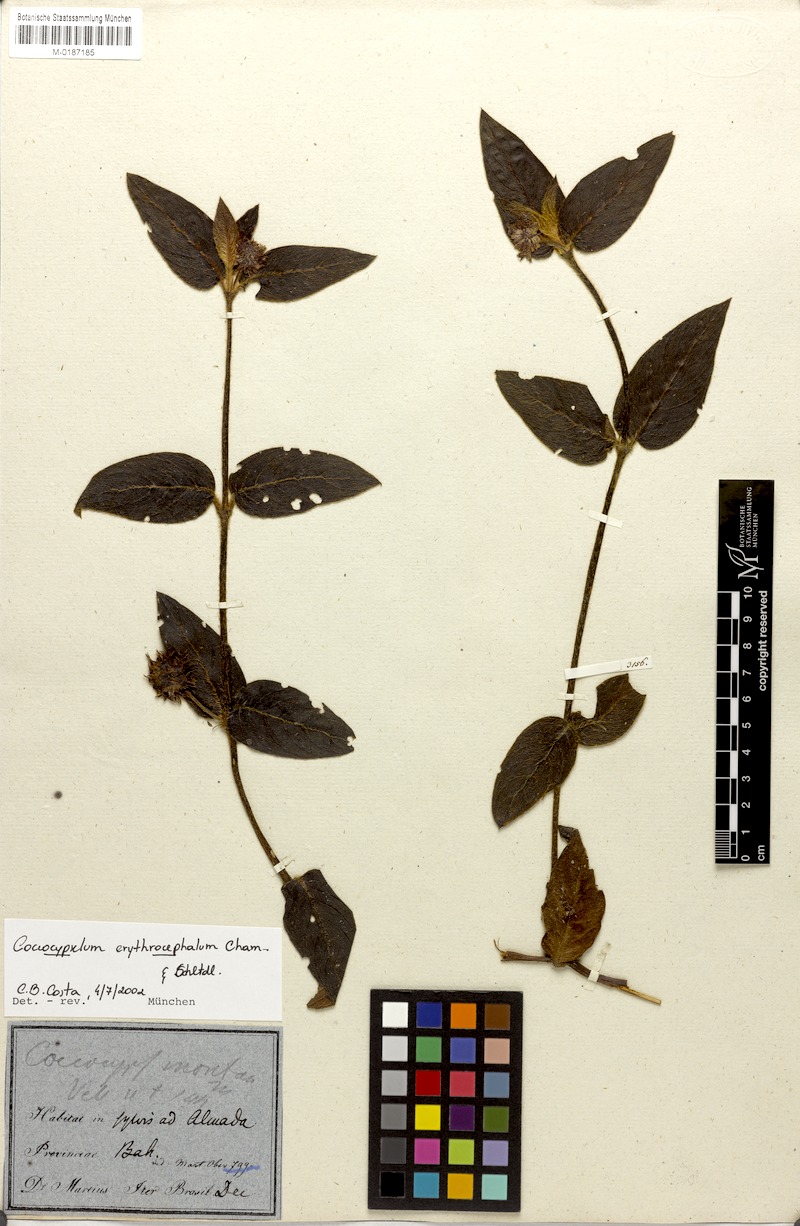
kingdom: Plantae
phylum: Tracheophyta
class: Magnoliopsida
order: Gentianales
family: Rubiaceae
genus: Coccocypselum
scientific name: Coccocypselum erythrocephalum
